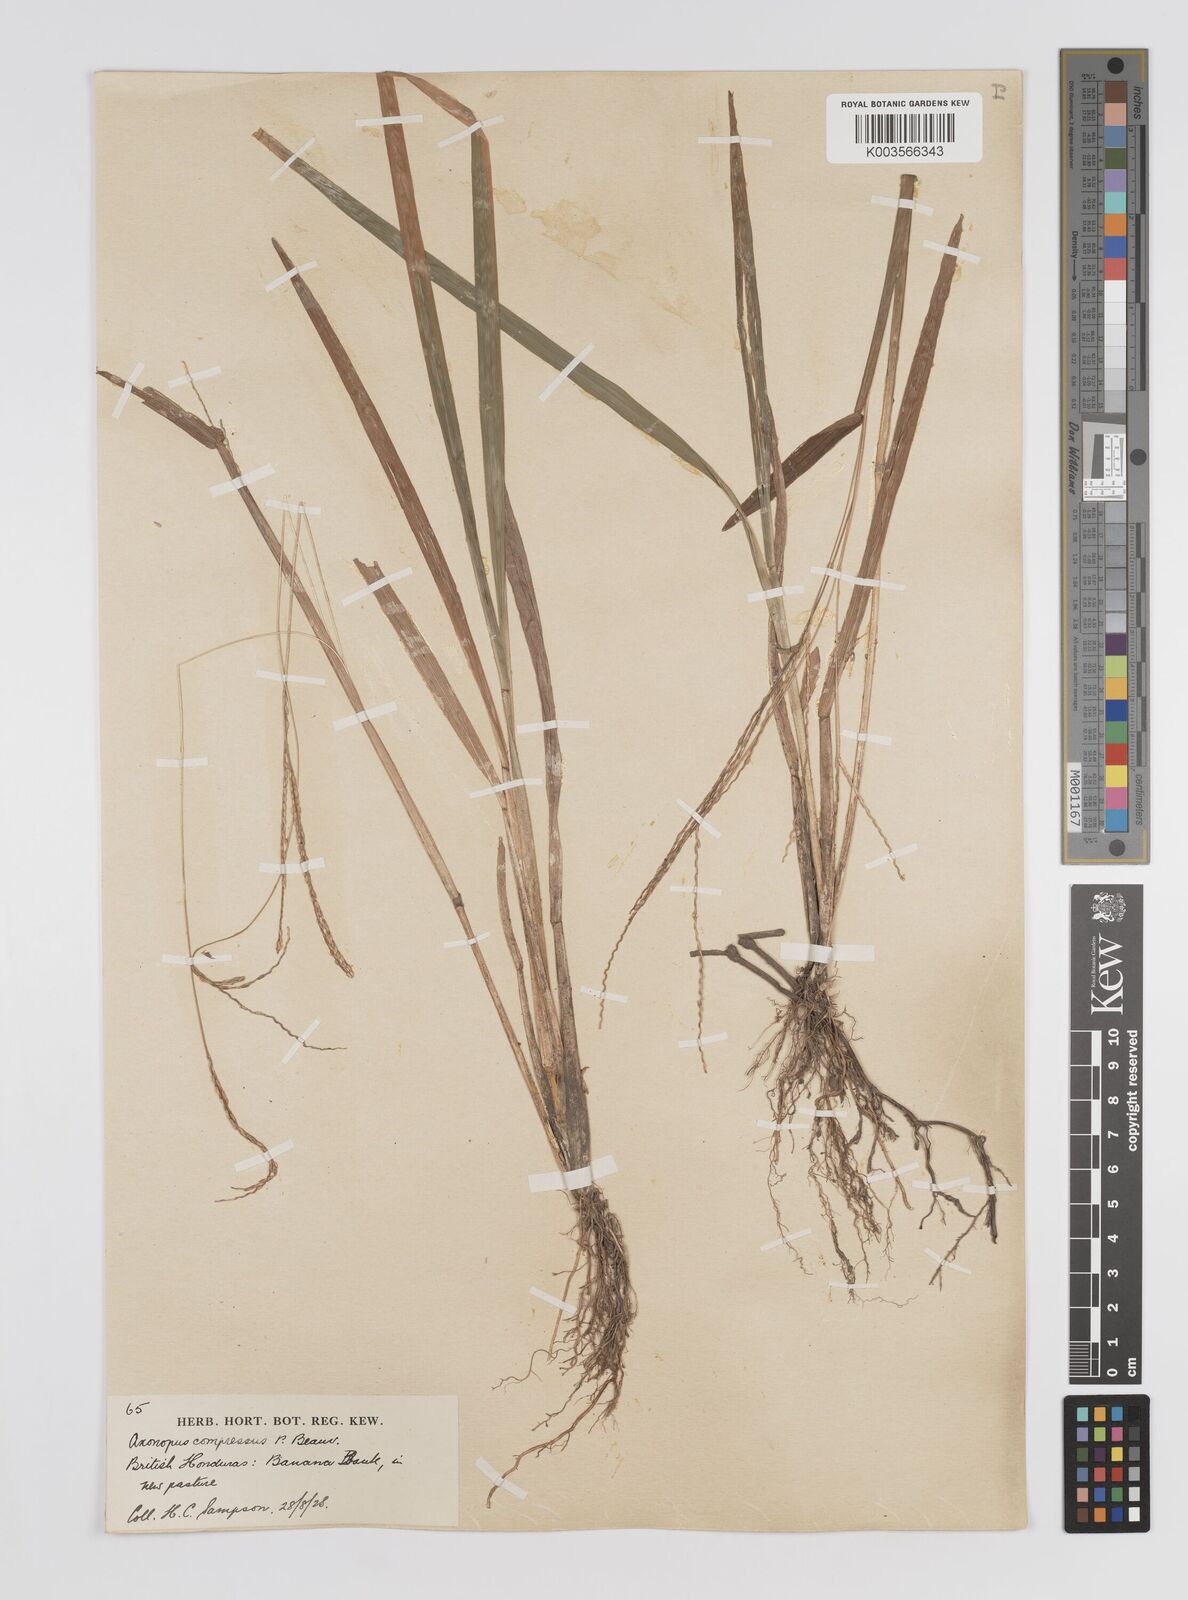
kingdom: Plantae
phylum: Tracheophyta
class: Liliopsida
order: Poales
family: Poaceae
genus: Axonopus
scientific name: Axonopus compressus
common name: American carpet grass
